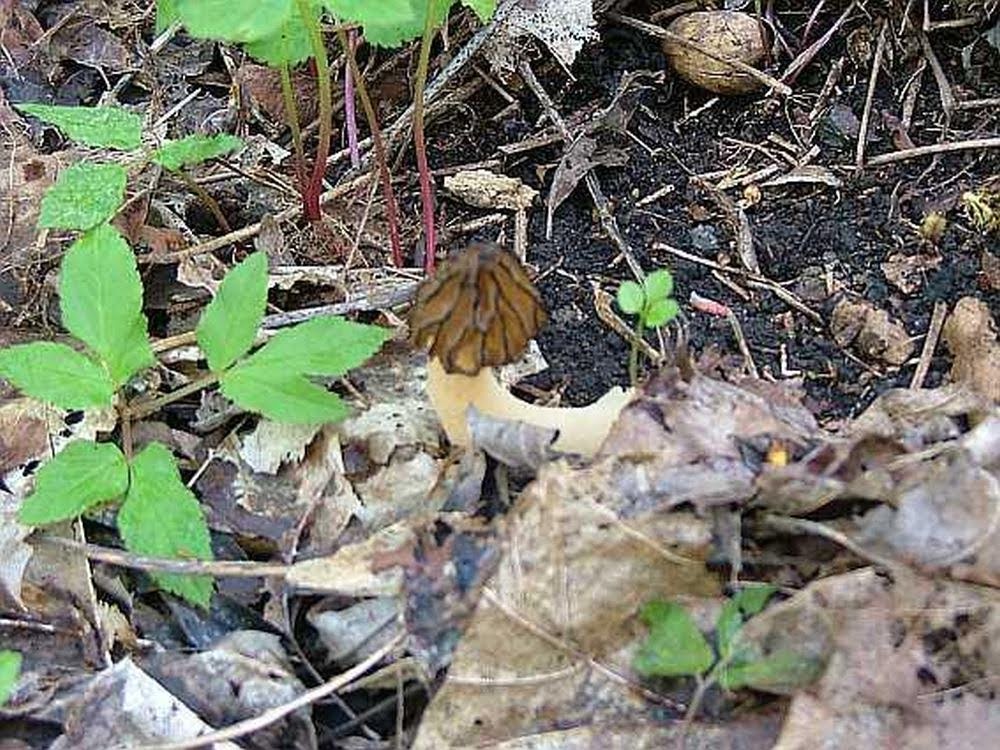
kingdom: Fungi
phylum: Ascomycota
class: Pezizomycetes
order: Pezizales
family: Morchellaceae
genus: Morchella
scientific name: Morchella semilibera
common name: hætte-morkel
